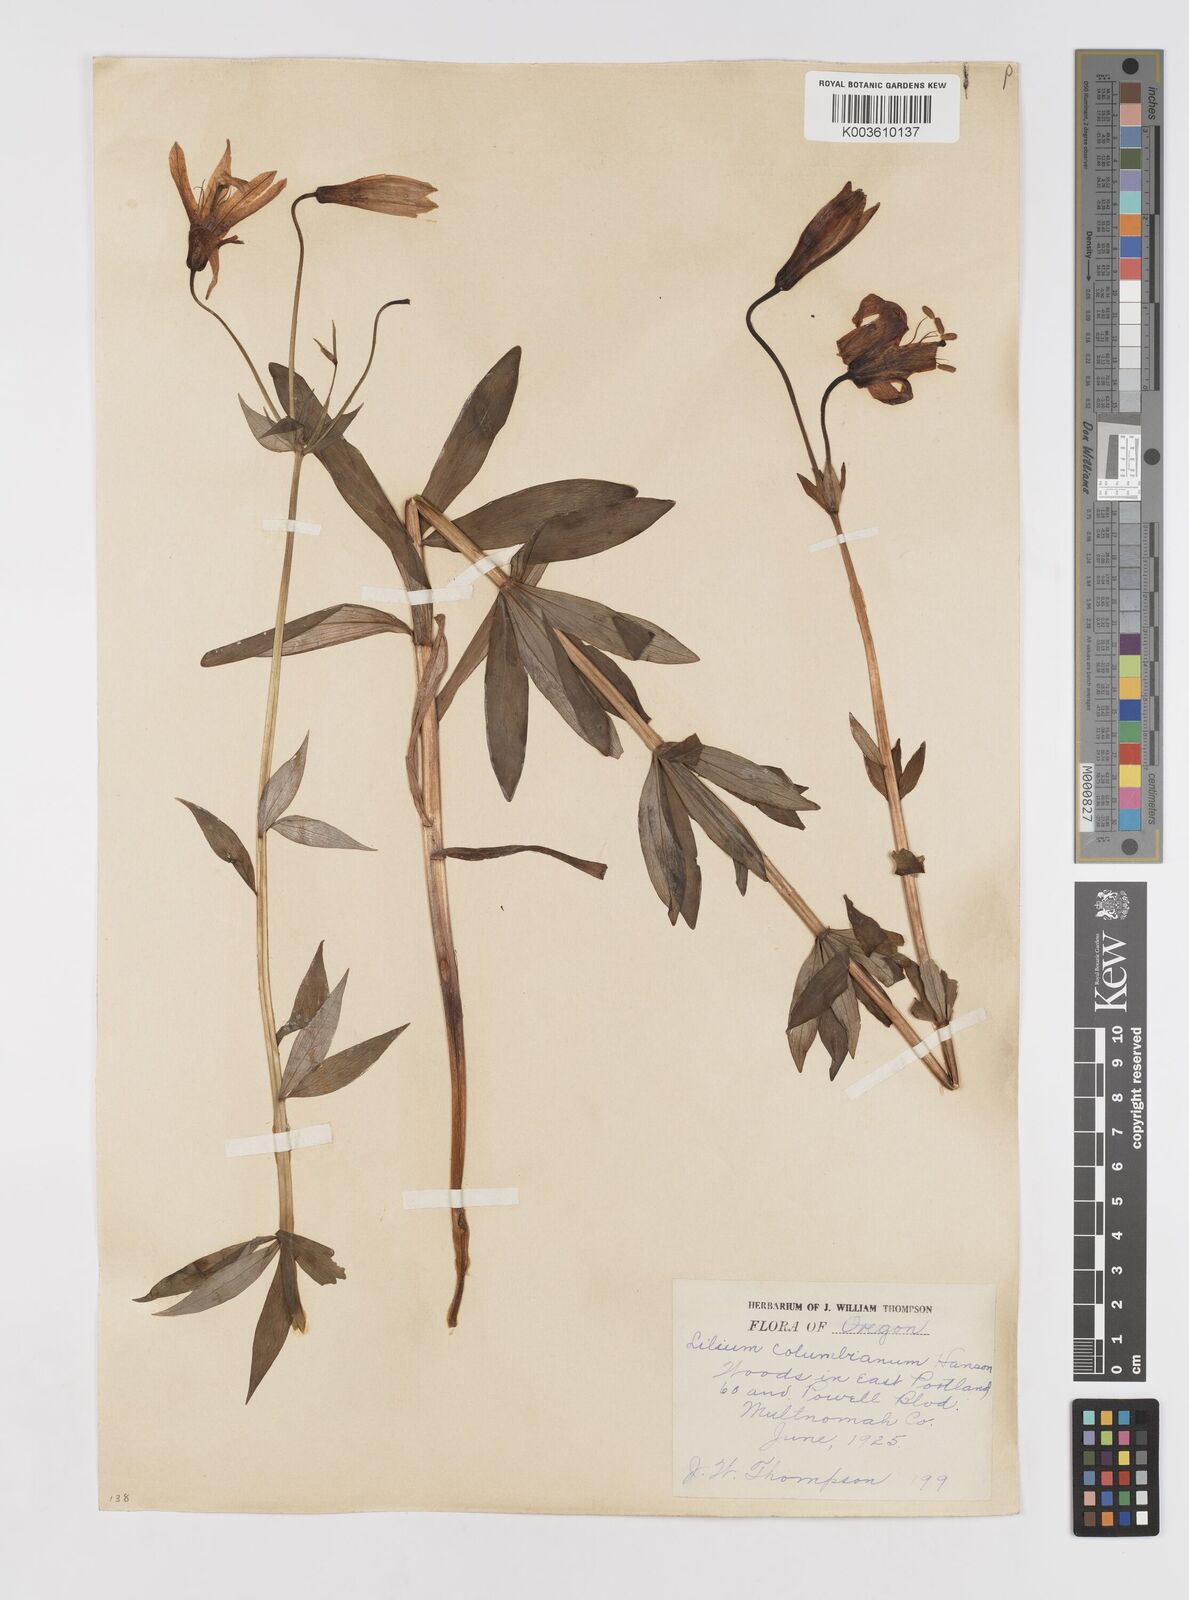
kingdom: Plantae
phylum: Tracheophyta
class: Liliopsida
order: Liliales
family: Liliaceae
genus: Lilium
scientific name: Lilium columbianum
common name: Columbia lily
